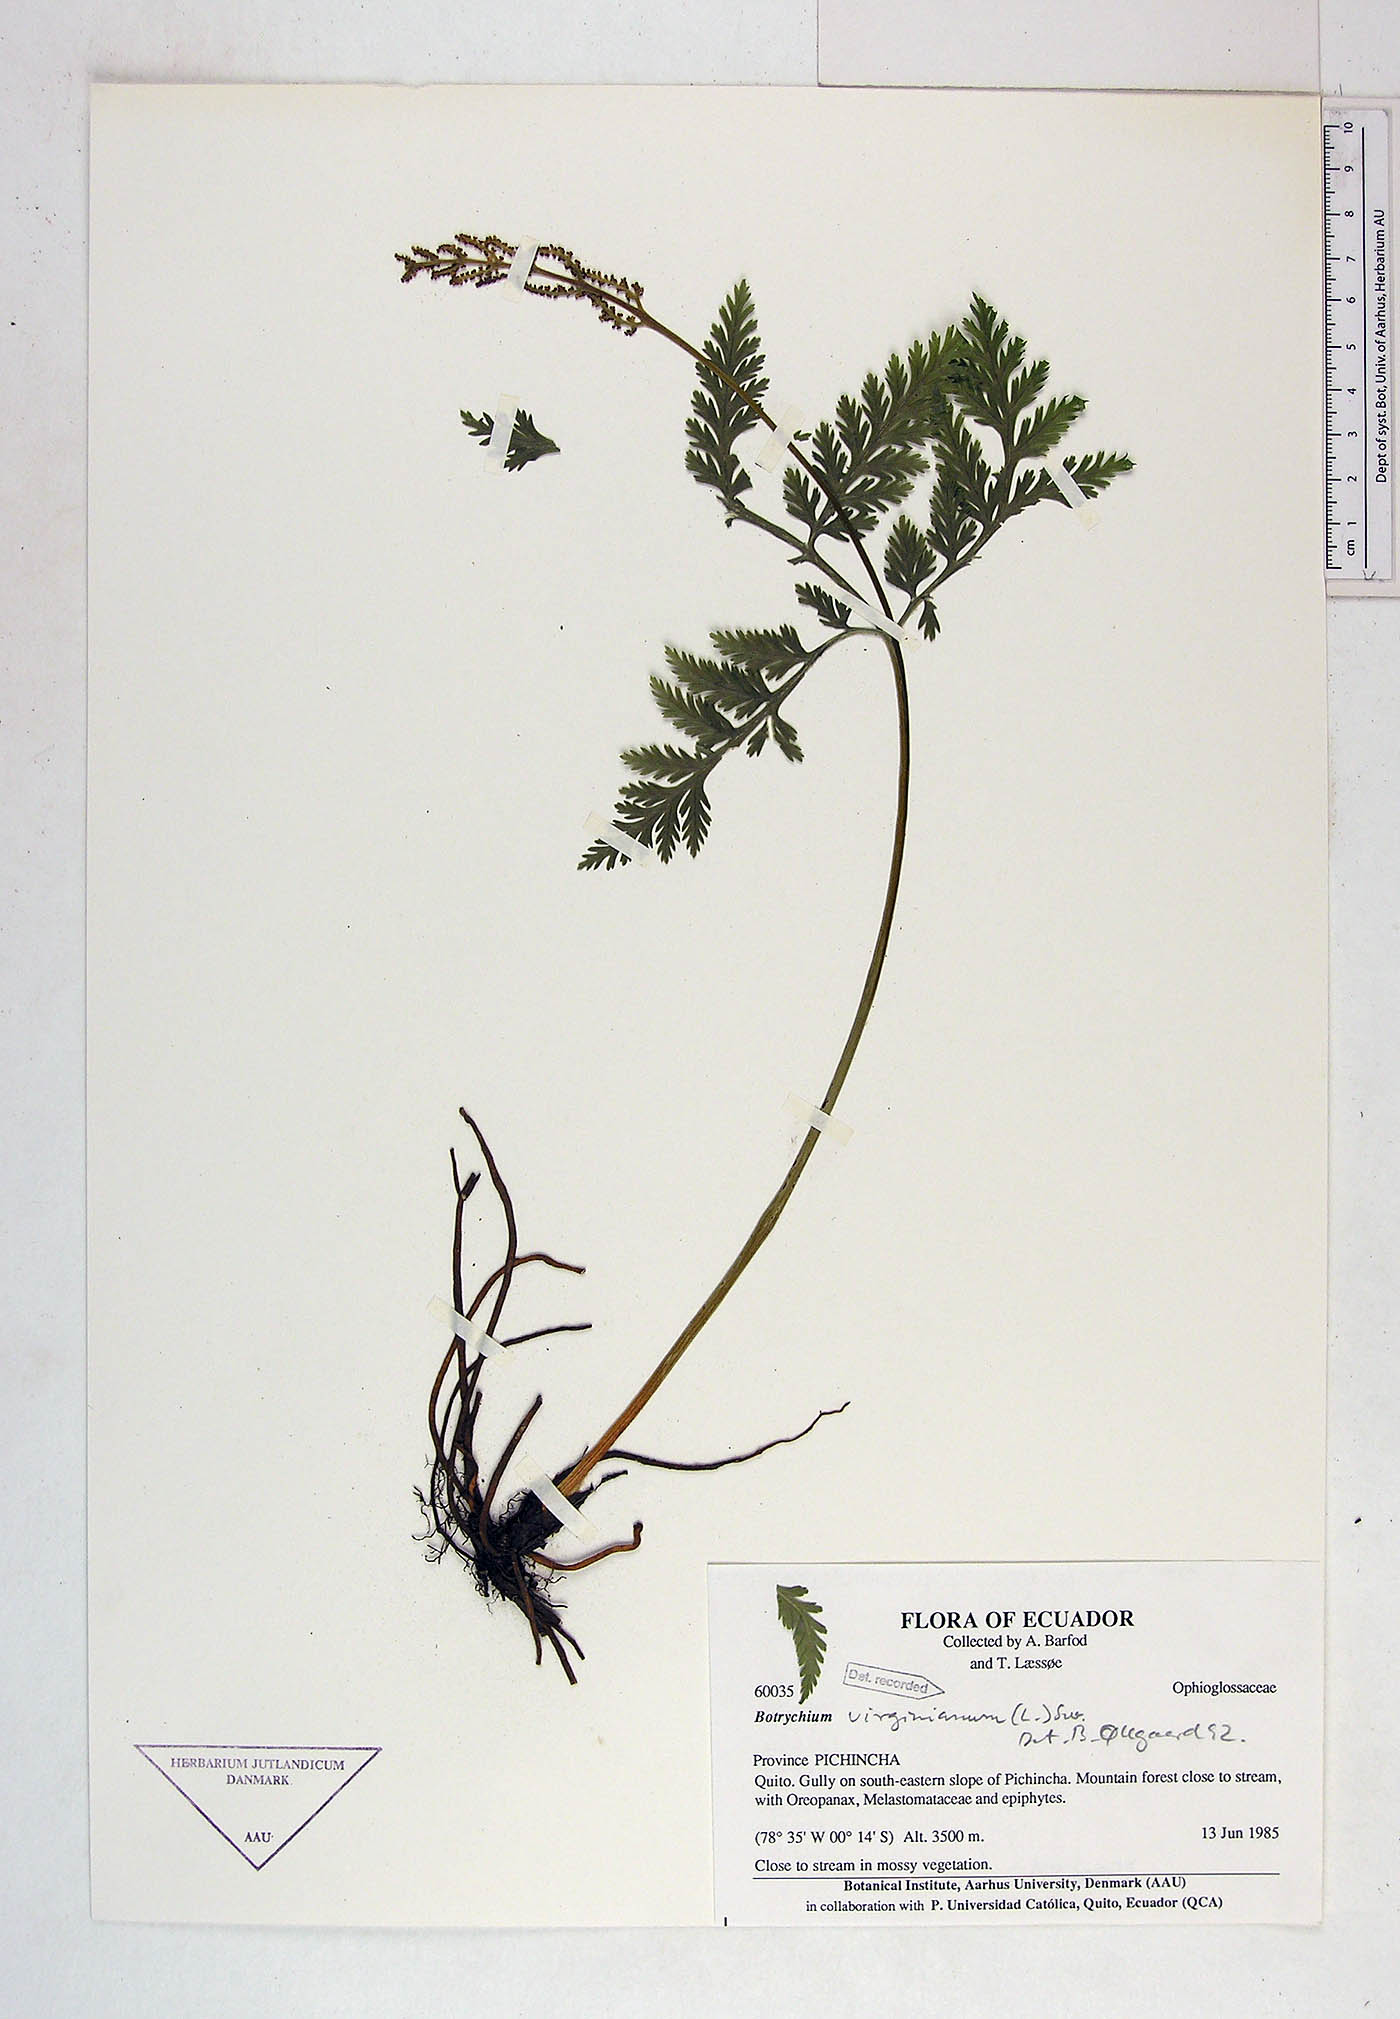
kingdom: Plantae
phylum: Tracheophyta
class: Polypodiopsida
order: Ophioglossales
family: Ophioglossaceae
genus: Botrypus
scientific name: Botrypus virginianus
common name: Common grapefern
